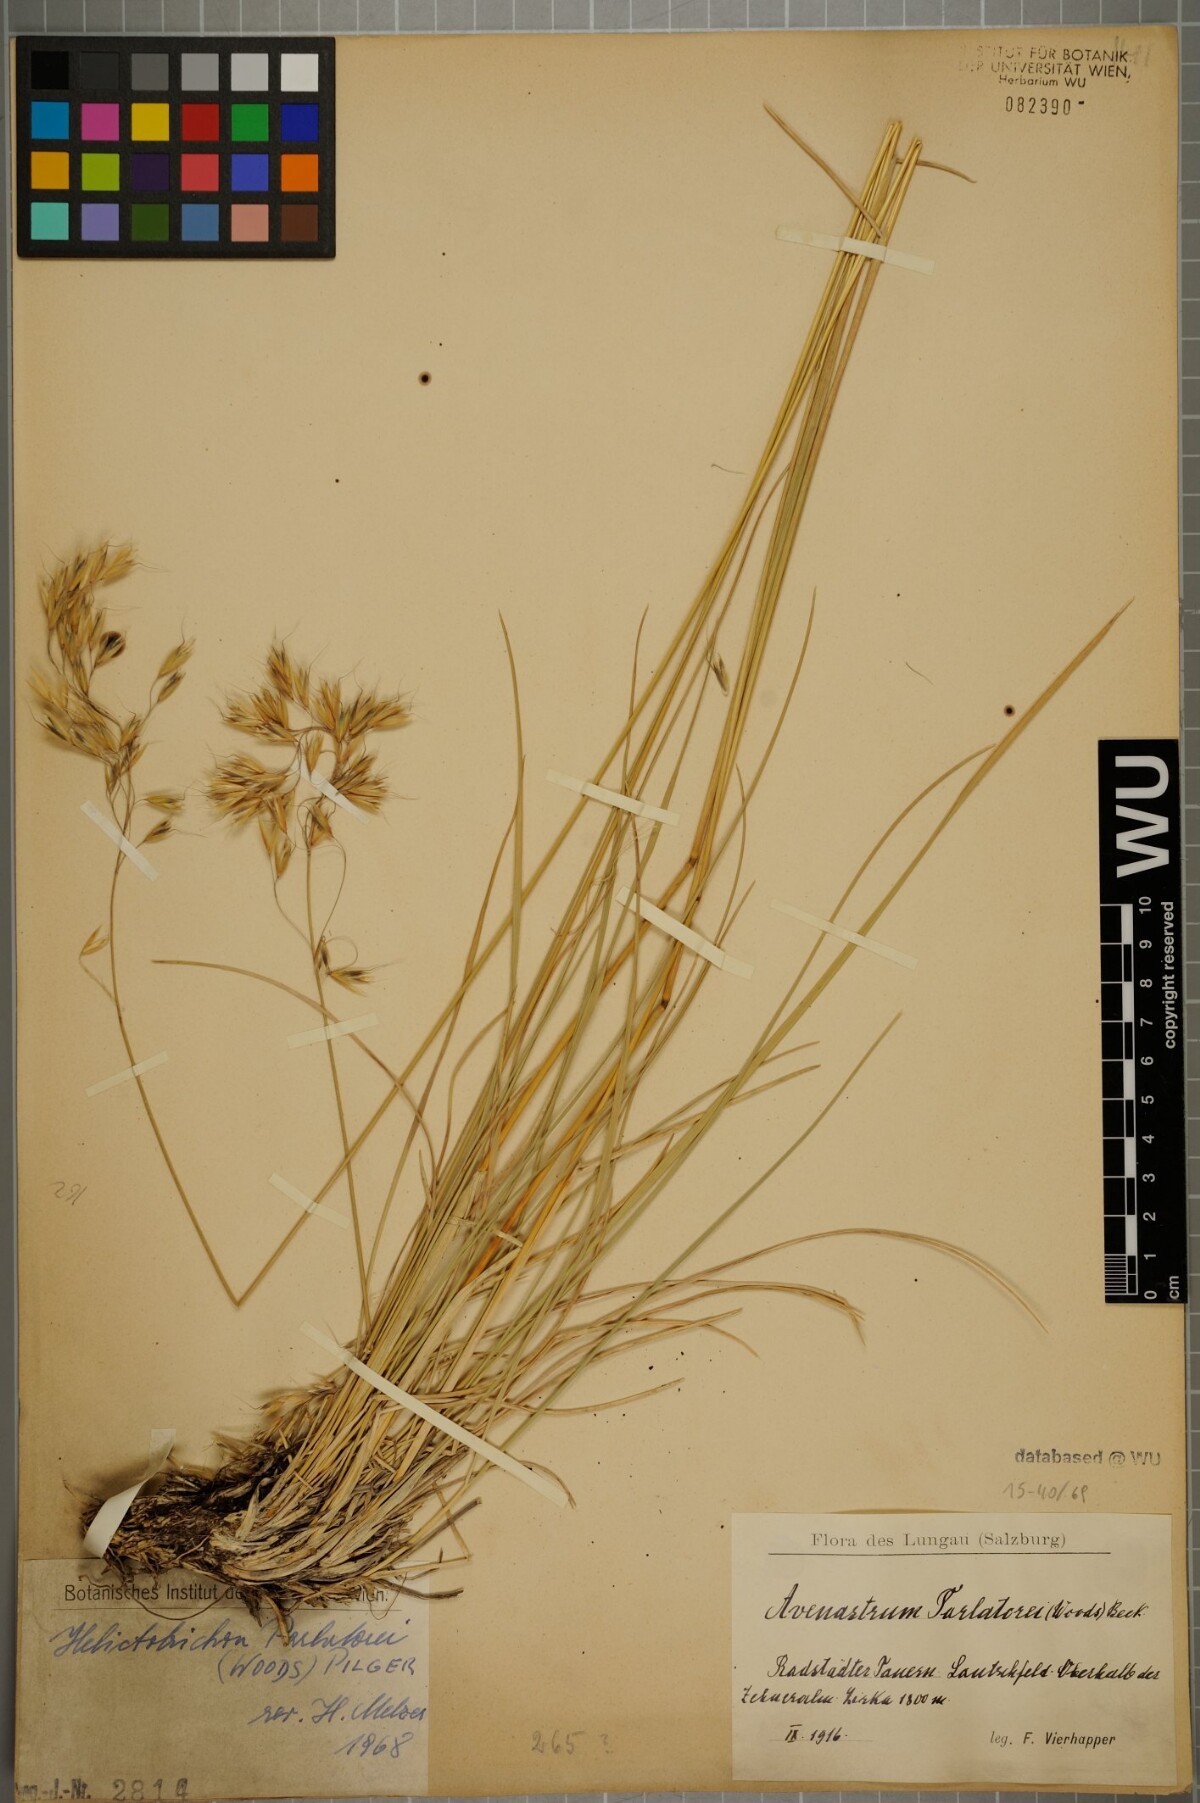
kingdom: Plantae
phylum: Tracheophyta
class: Liliopsida
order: Poales
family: Poaceae
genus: Helictotrichon
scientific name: Helictotrichon parlatorei
